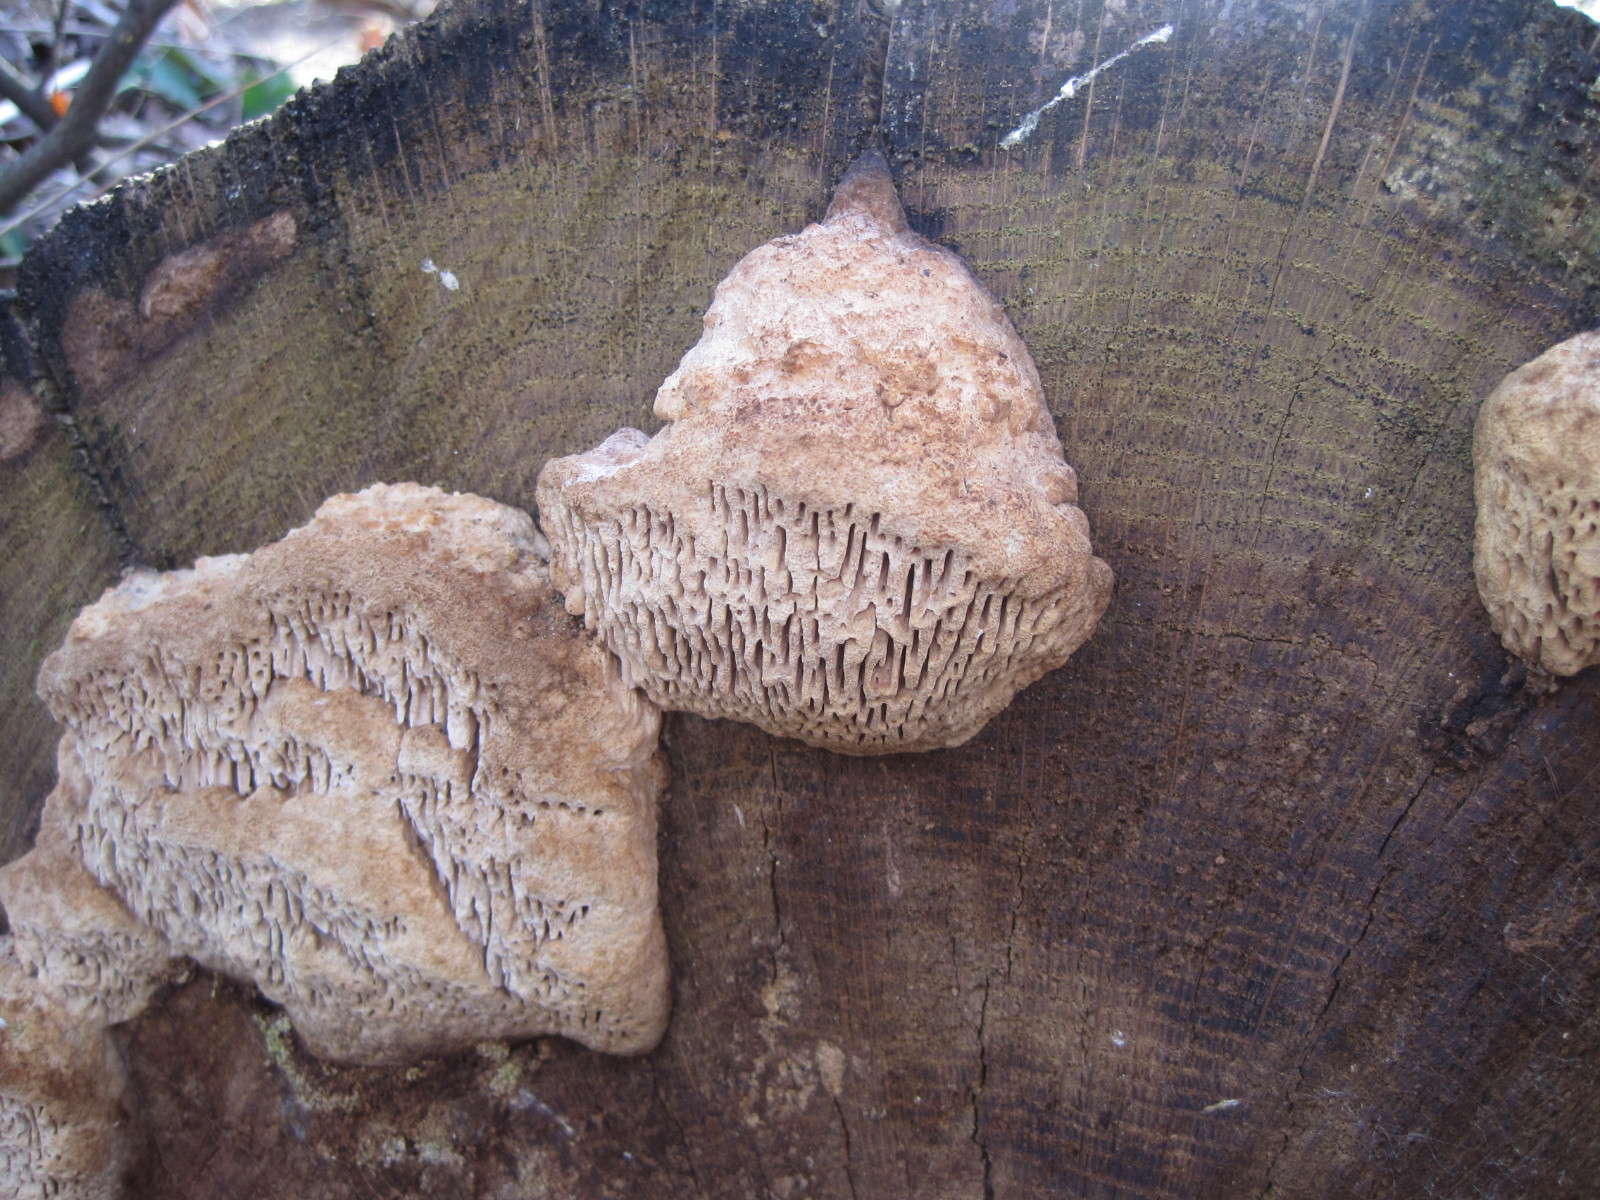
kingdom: Fungi
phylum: Basidiomycota
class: Agaricomycetes
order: Polyporales
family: Fomitopsidaceae
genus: Daedalea
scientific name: Daedalea quercina
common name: ege-labyrintsvamp
